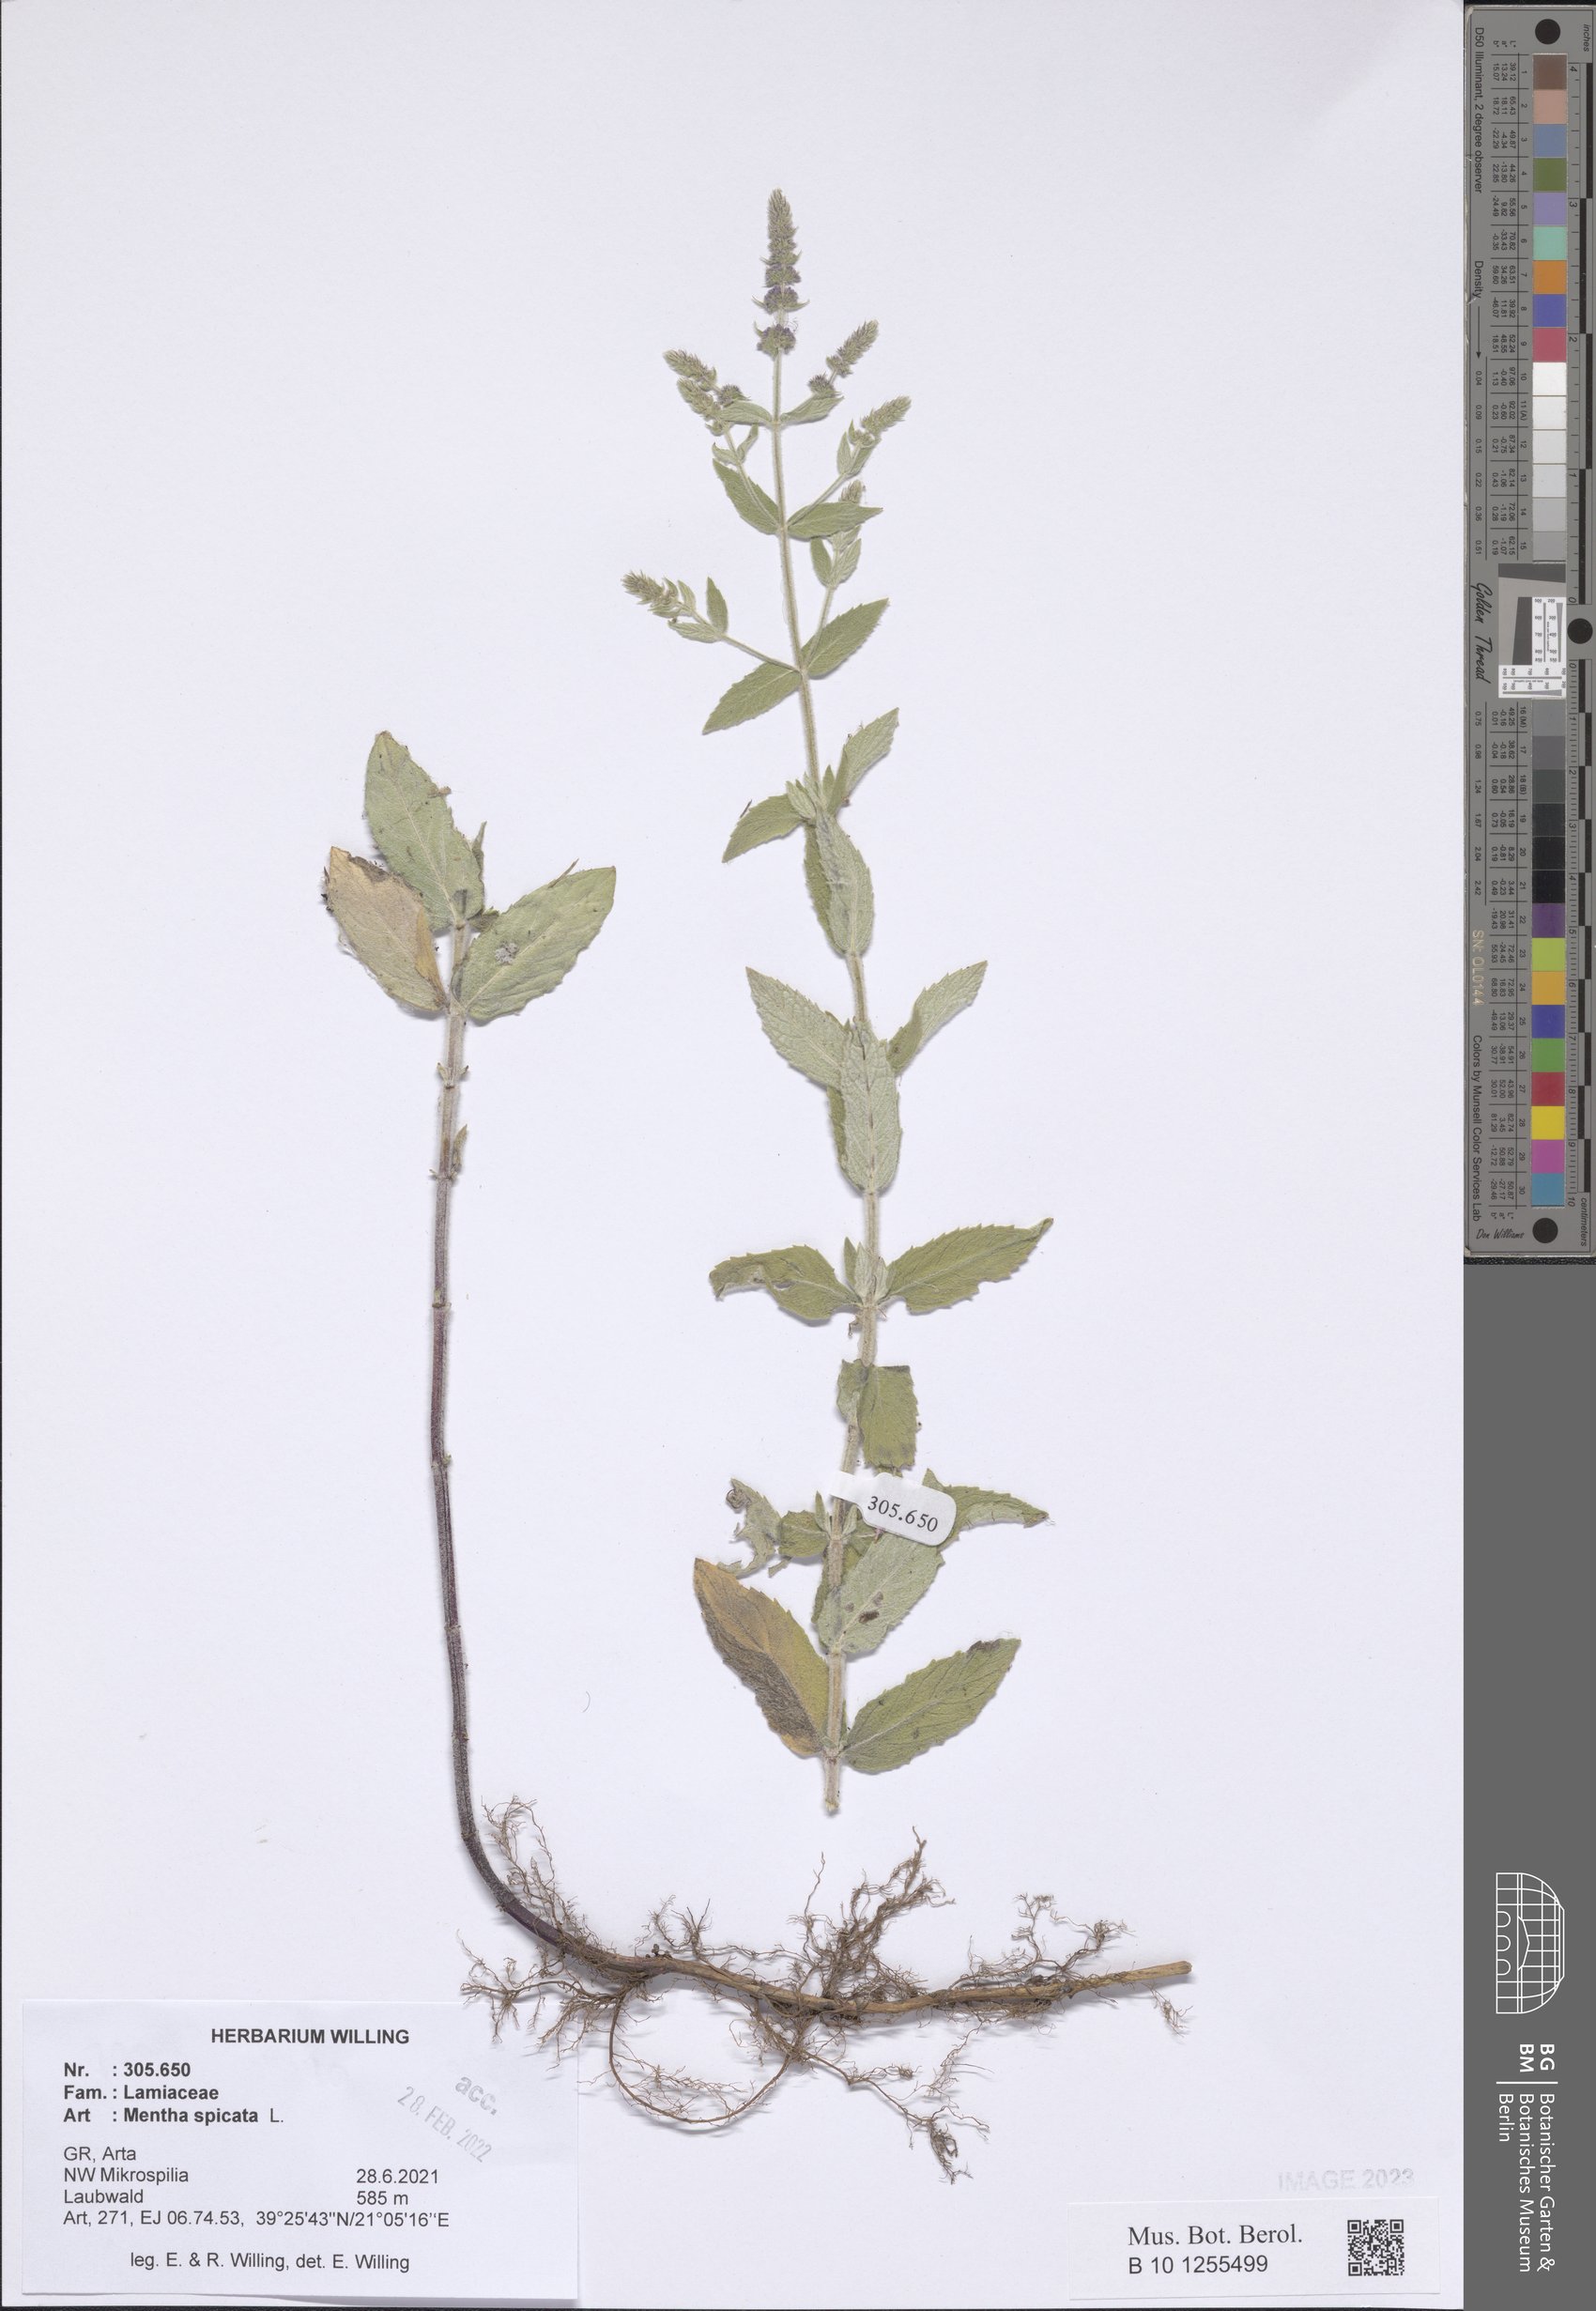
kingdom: Plantae
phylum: Tracheophyta
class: Magnoliopsida
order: Lamiales
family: Lamiaceae
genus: Mentha
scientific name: Mentha spicata
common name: Spearmint
